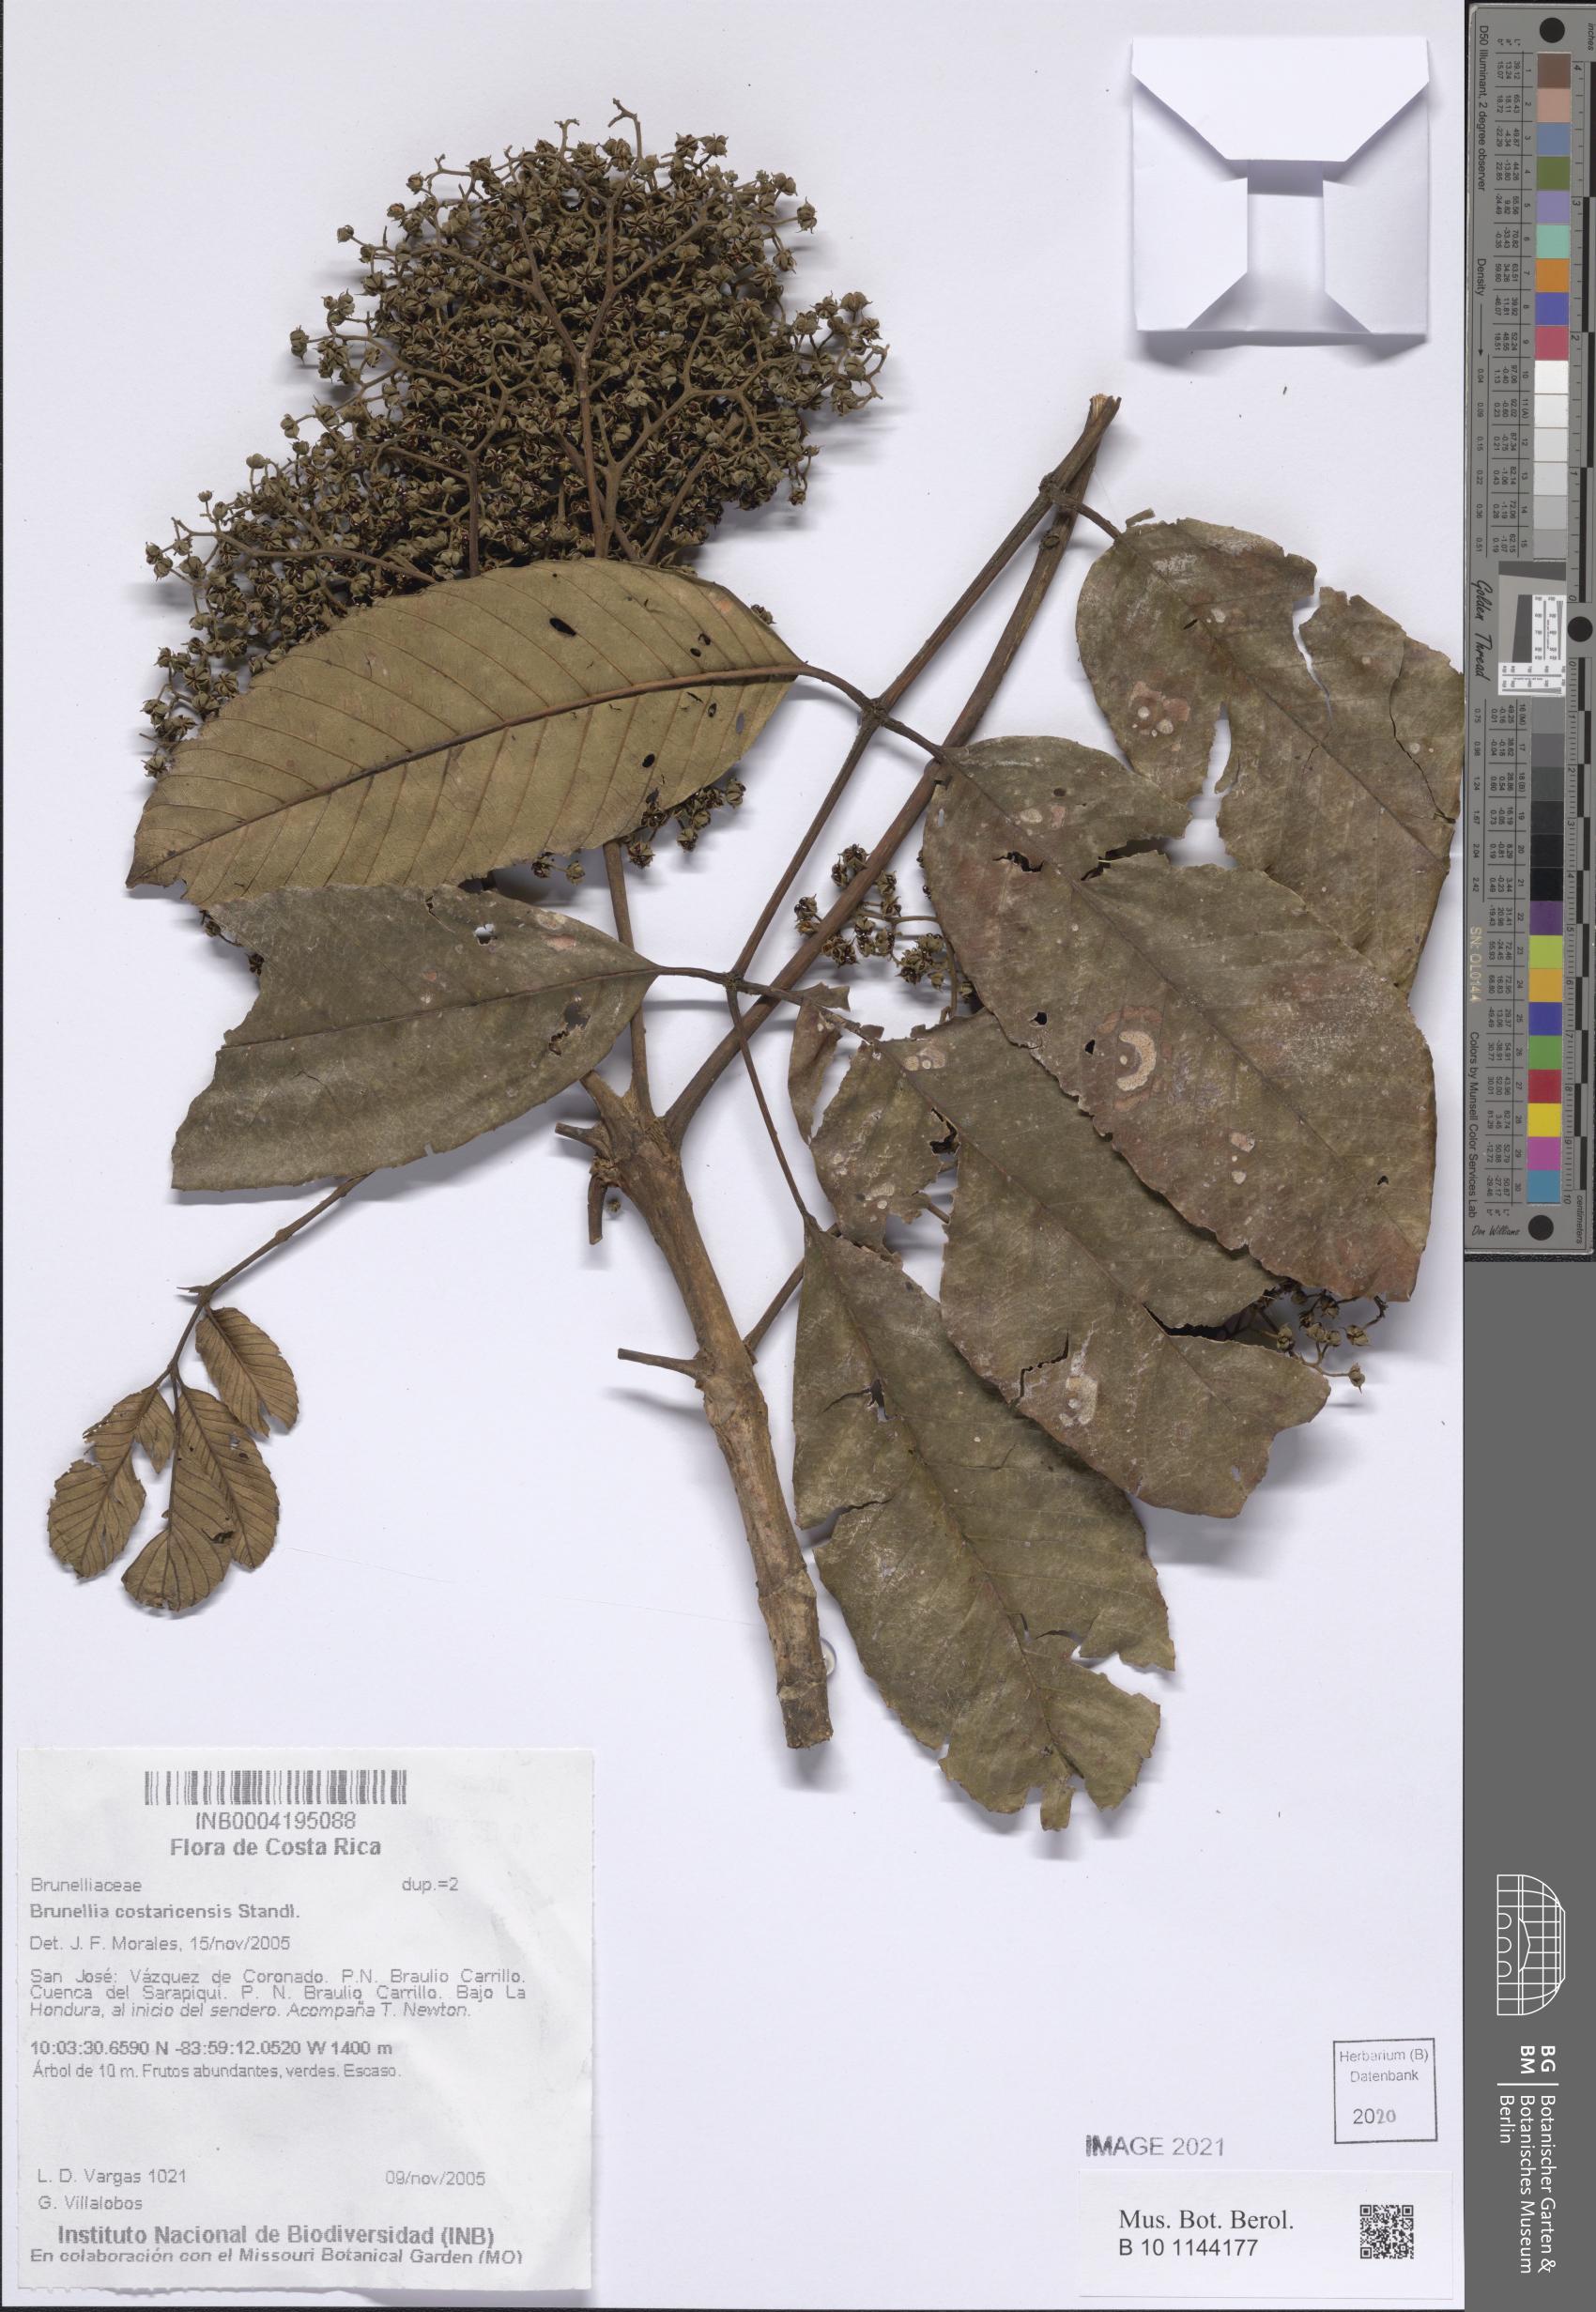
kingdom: Plantae
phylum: Tracheophyta
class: Magnoliopsida
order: Oxalidales
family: Brunelliaceae
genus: Brunellia
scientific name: Brunellia costaricensis
